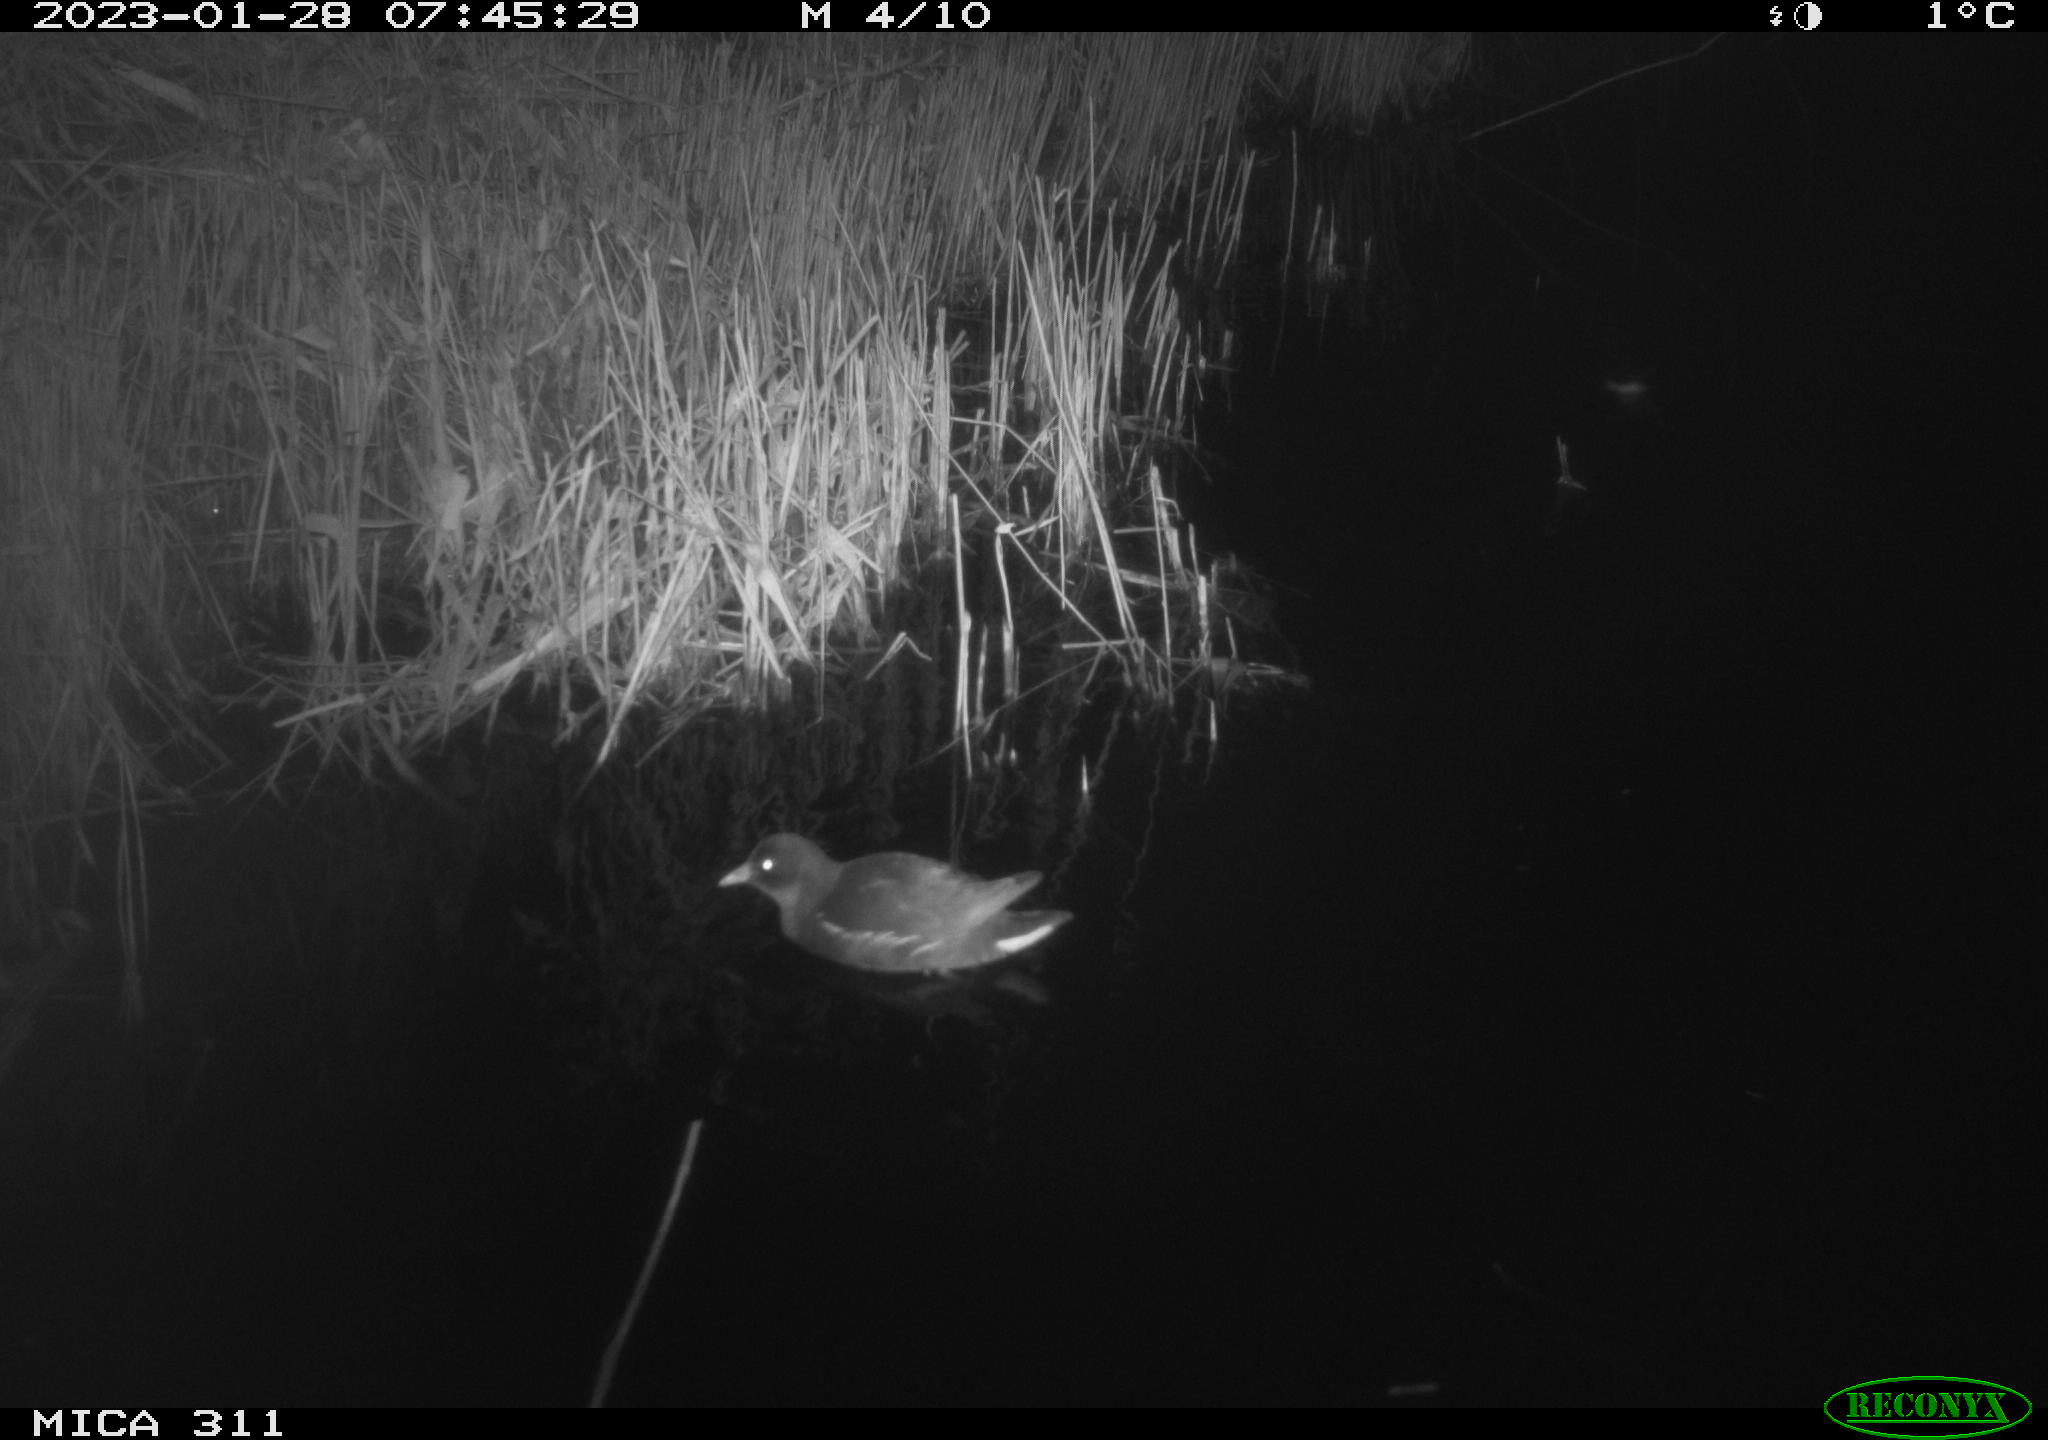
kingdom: Animalia
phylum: Chordata
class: Aves
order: Gruiformes
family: Rallidae
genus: Gallinula
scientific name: Gallinula chloropus
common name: Common moorhen
